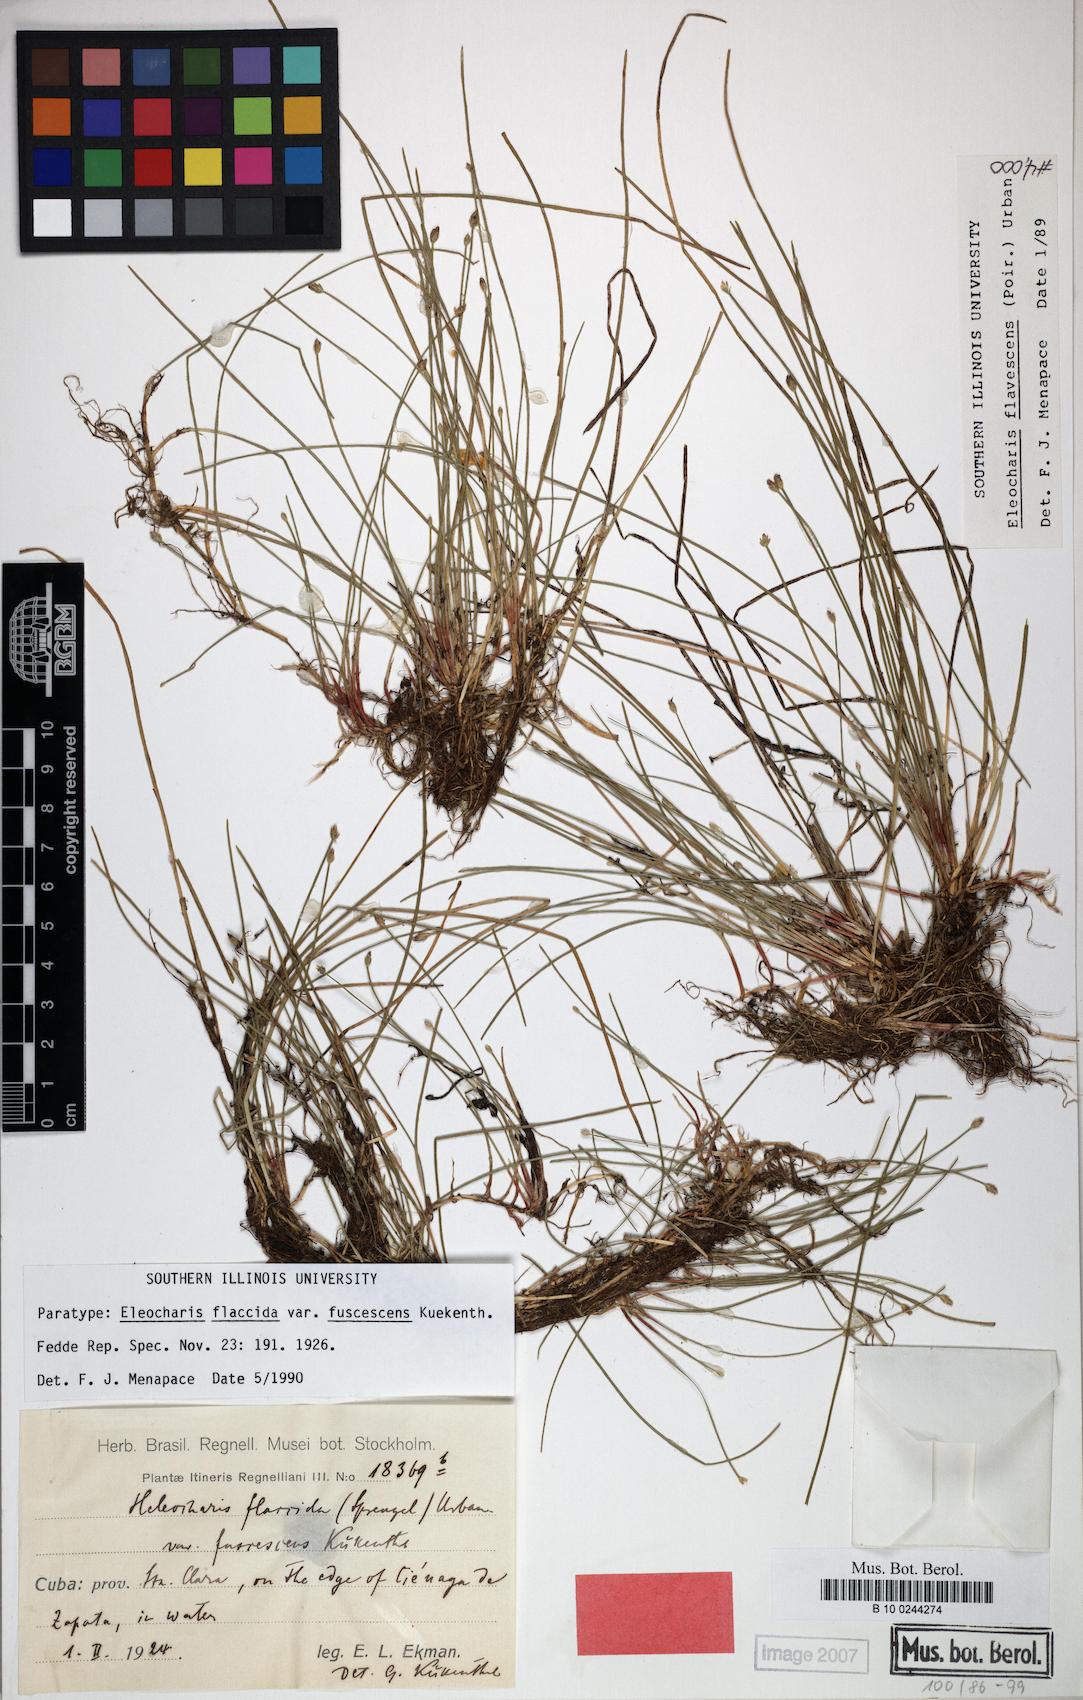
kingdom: Plantae
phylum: Tracheophyta
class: Liliopsida
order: Poales
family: Cyperaceae
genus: Eleocharis
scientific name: Eleocharis flavescens
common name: Yellow spikerush
